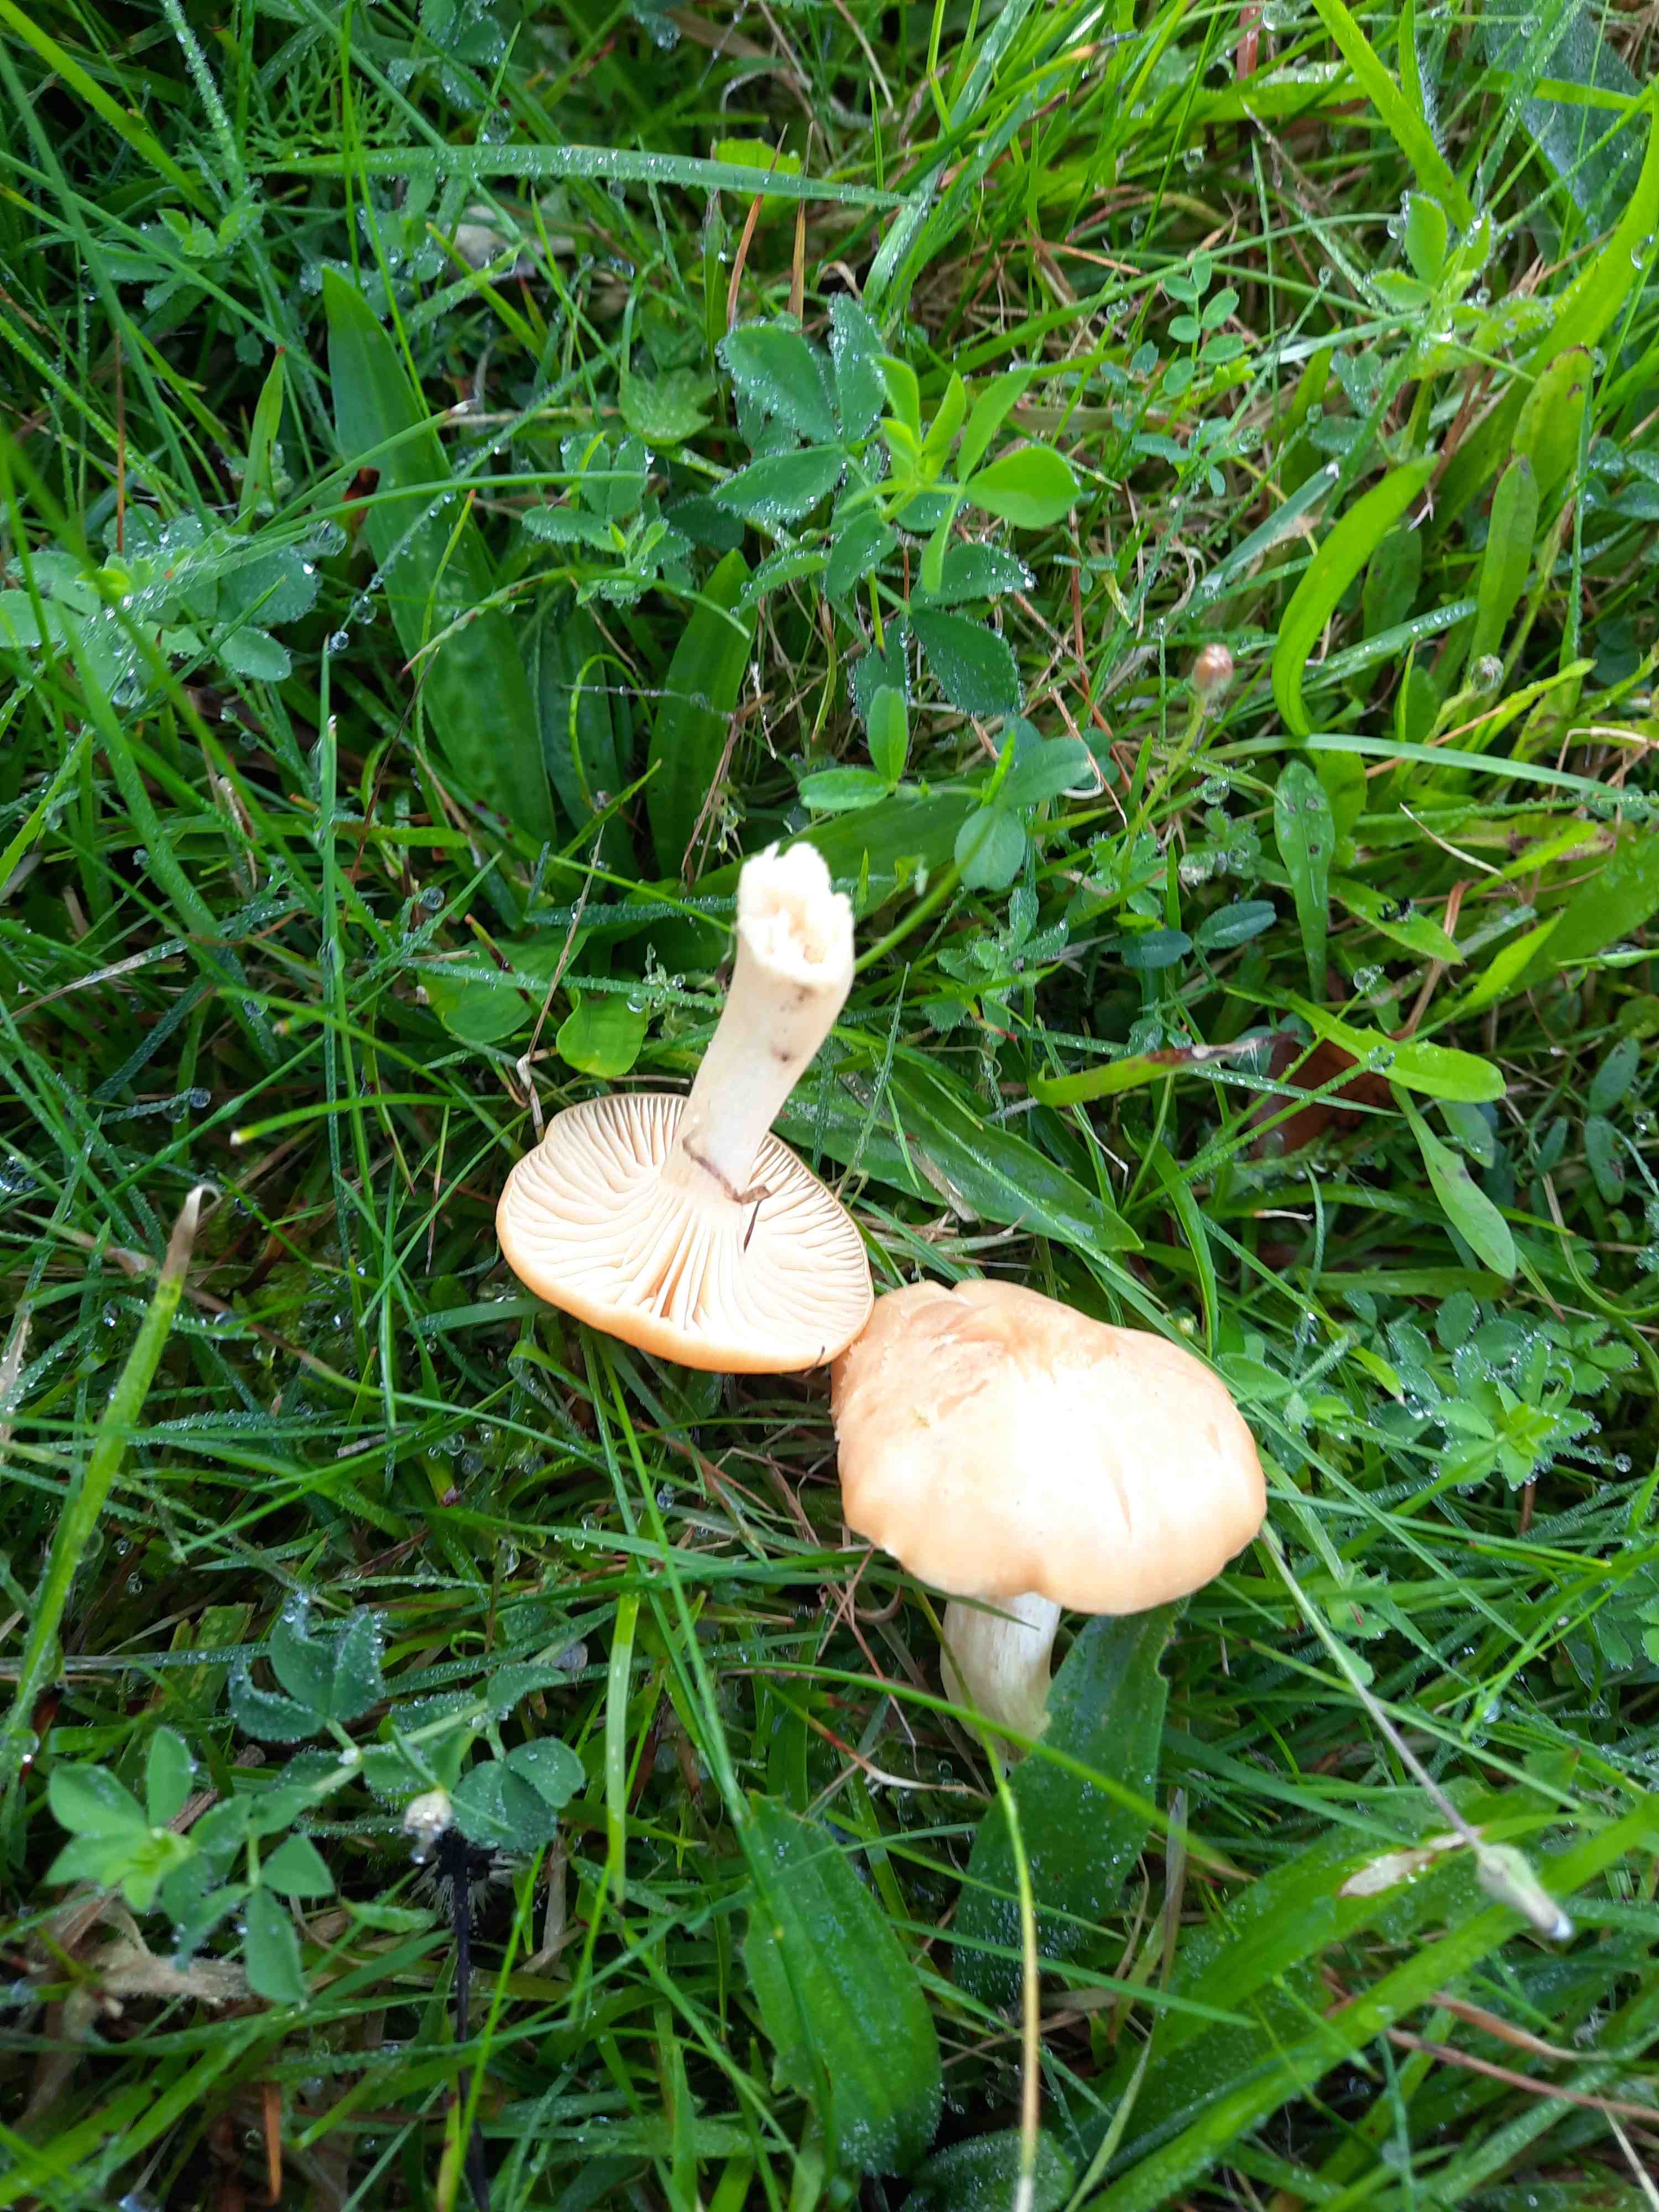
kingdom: Fungi
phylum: Basidiomycota
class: Agaricomycetes
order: Agaricales
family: Hygrophoraceae
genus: Cuphophyllus
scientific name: Cuphophyllus pratensis
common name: eng-vokshat
